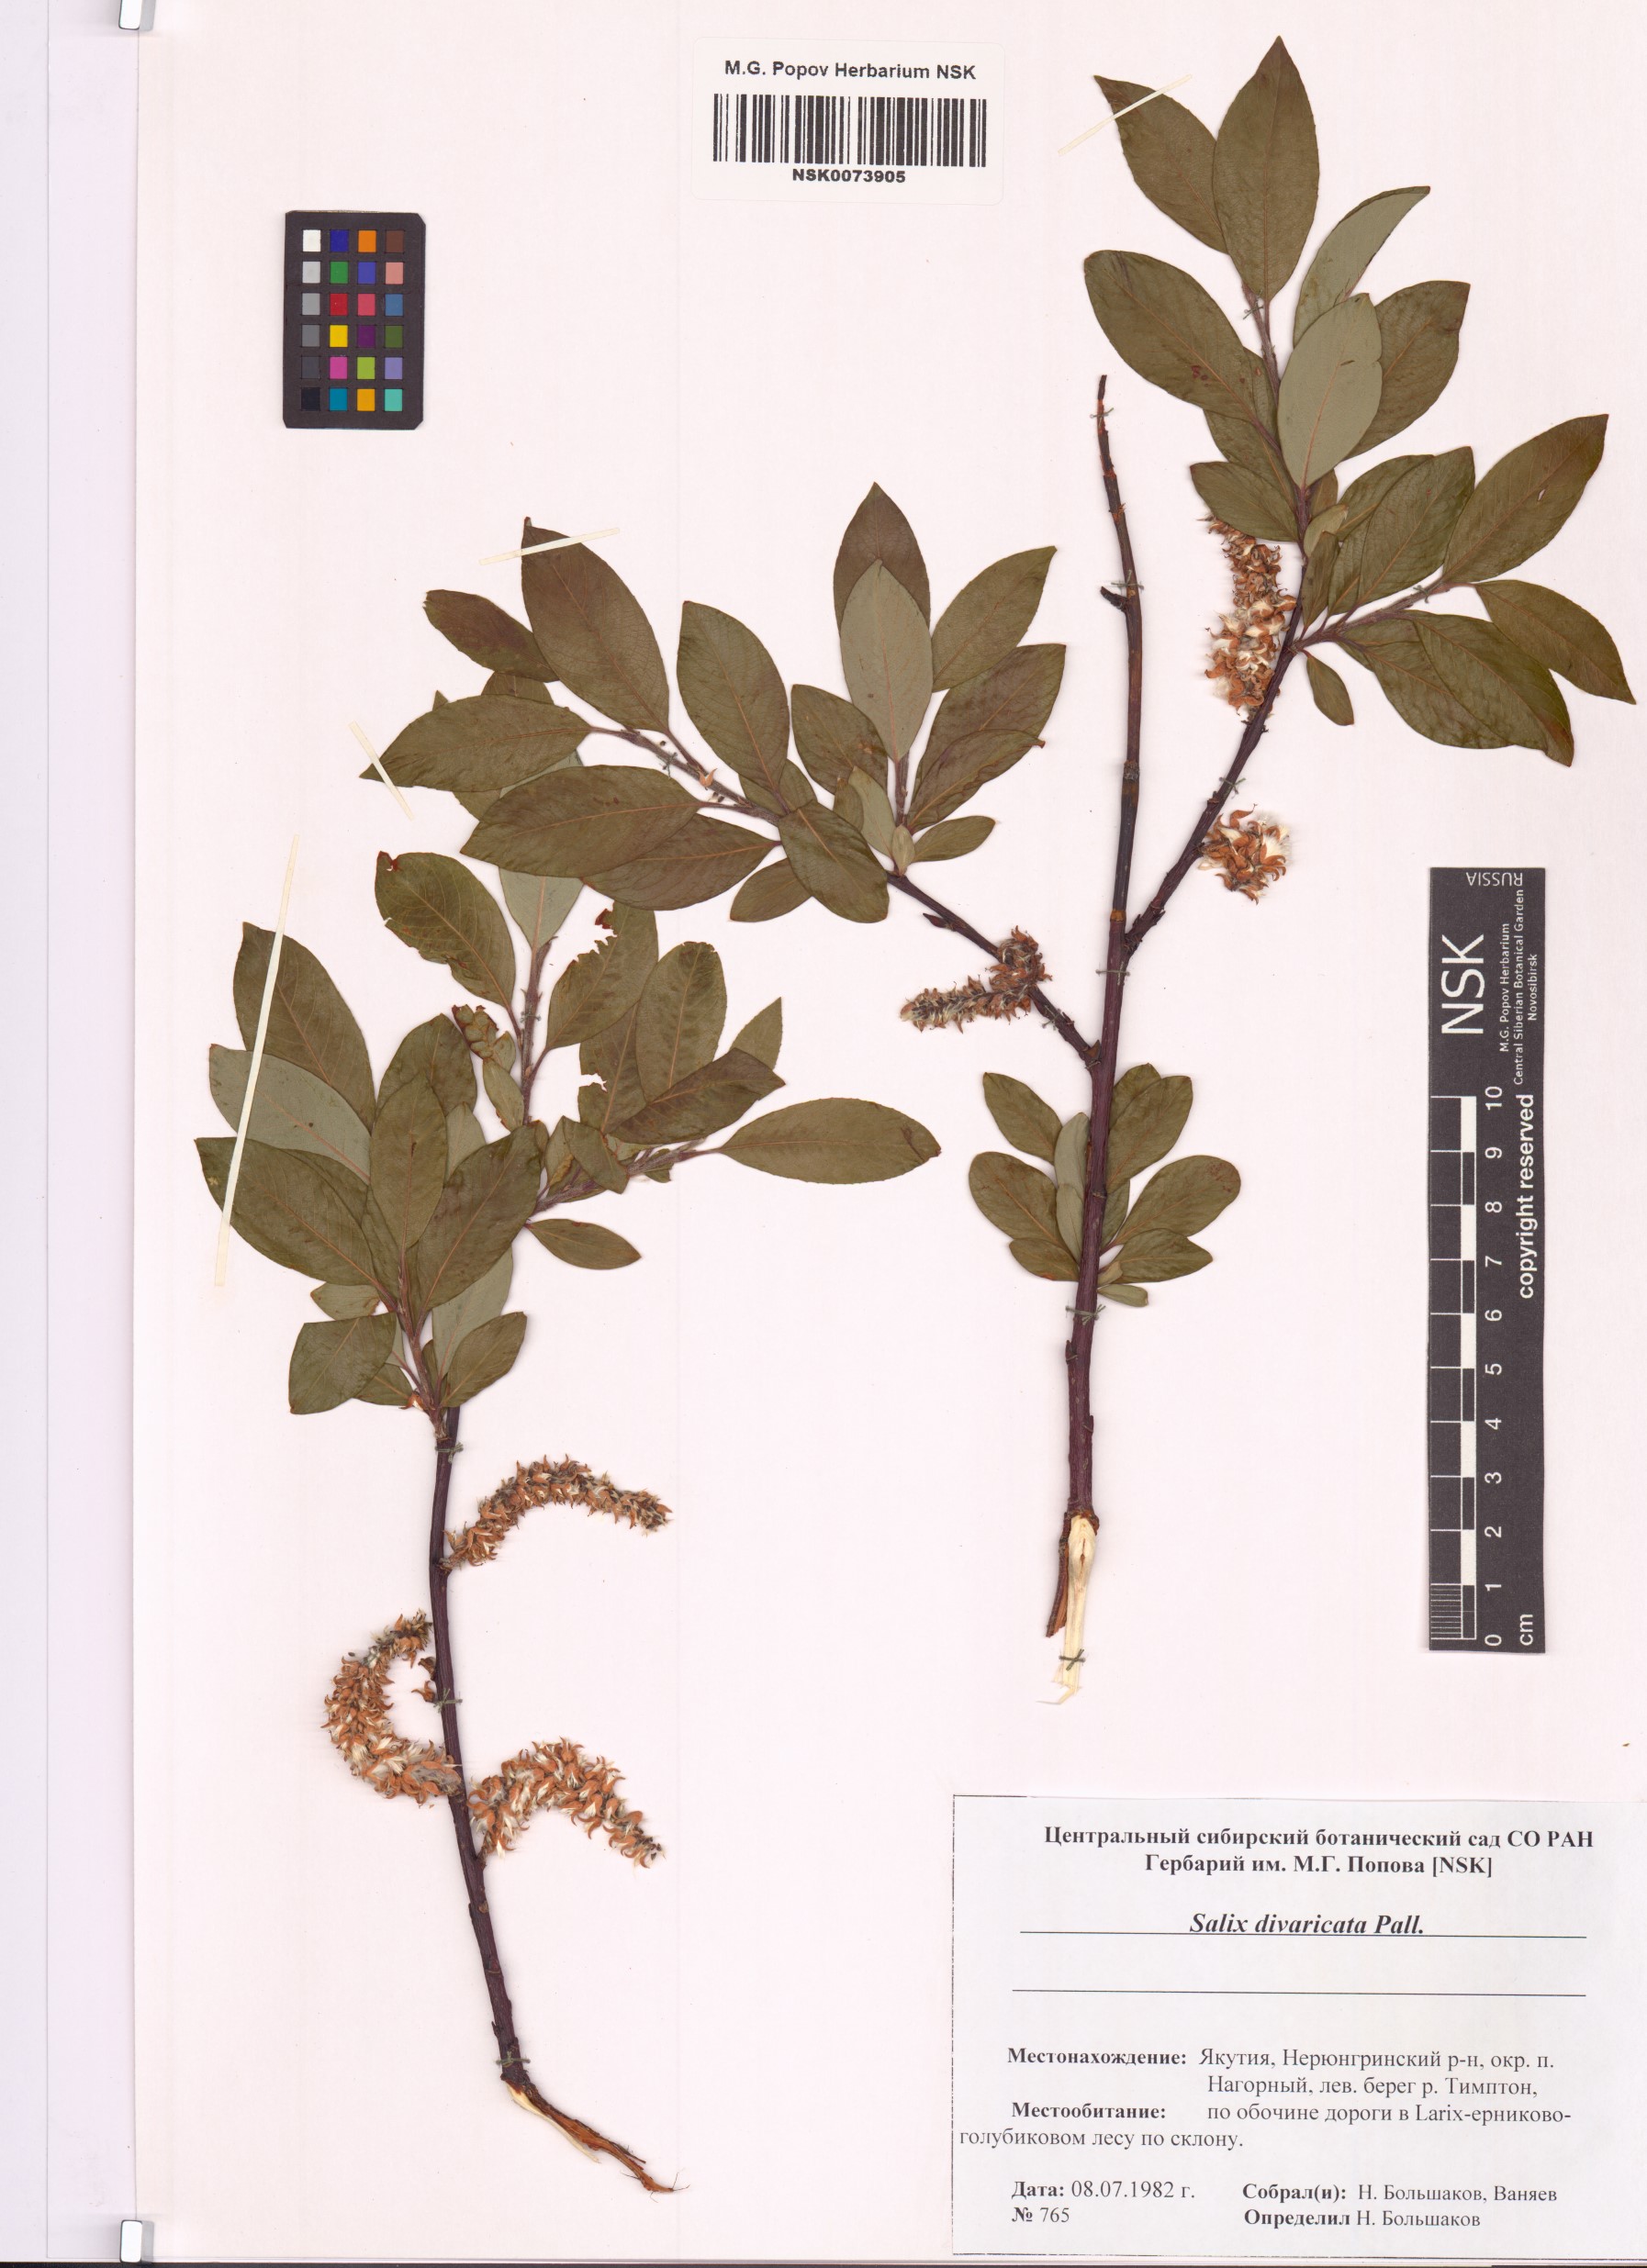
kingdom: Plantae
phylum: Tracheophyta
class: Magnoliopsida
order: Malpighiales
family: Salicaceae
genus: Salix
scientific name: Salix divaricata
